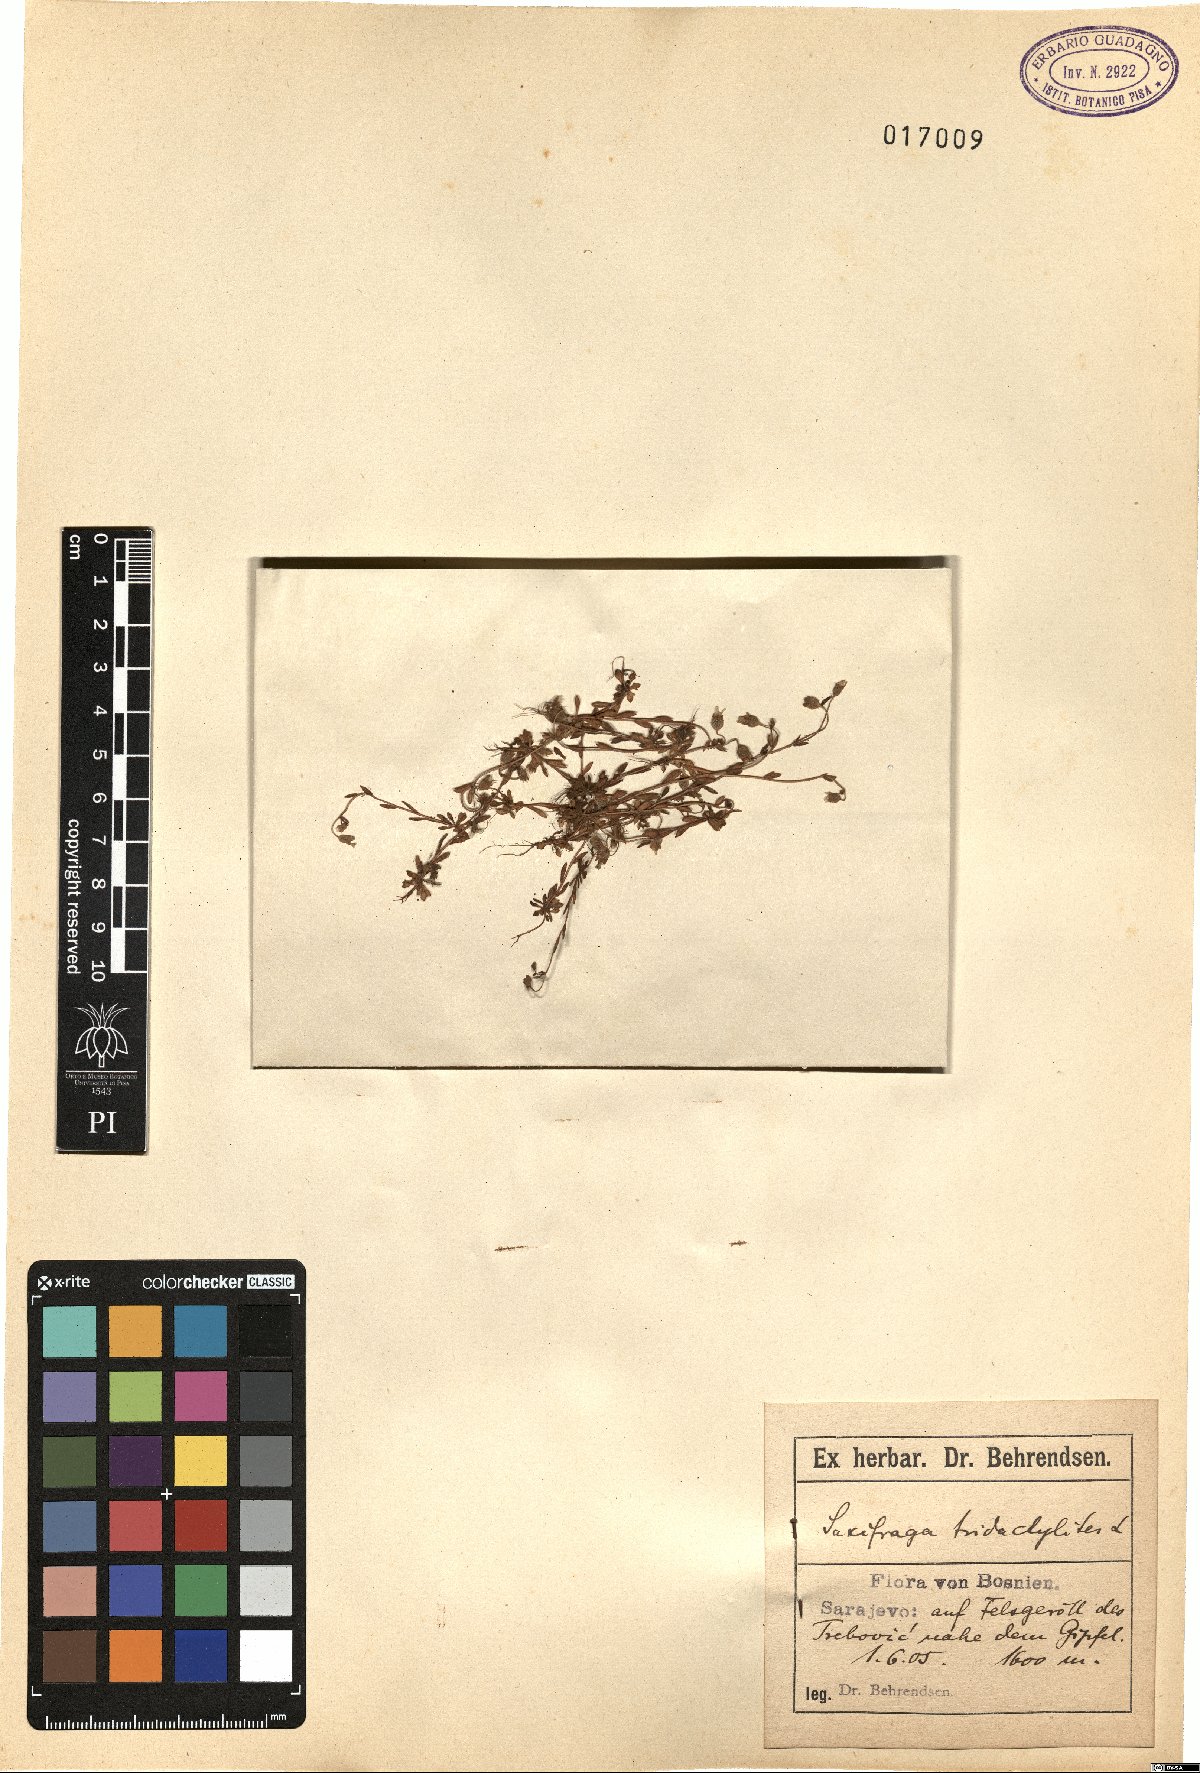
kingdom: Plantae
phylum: Tracheophyta
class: Magnoliopsida
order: Saxifragales
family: Saxifragaceae
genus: Saxifraga
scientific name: Saxifraga tridactylites
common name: Rue-leaved saxifrage
